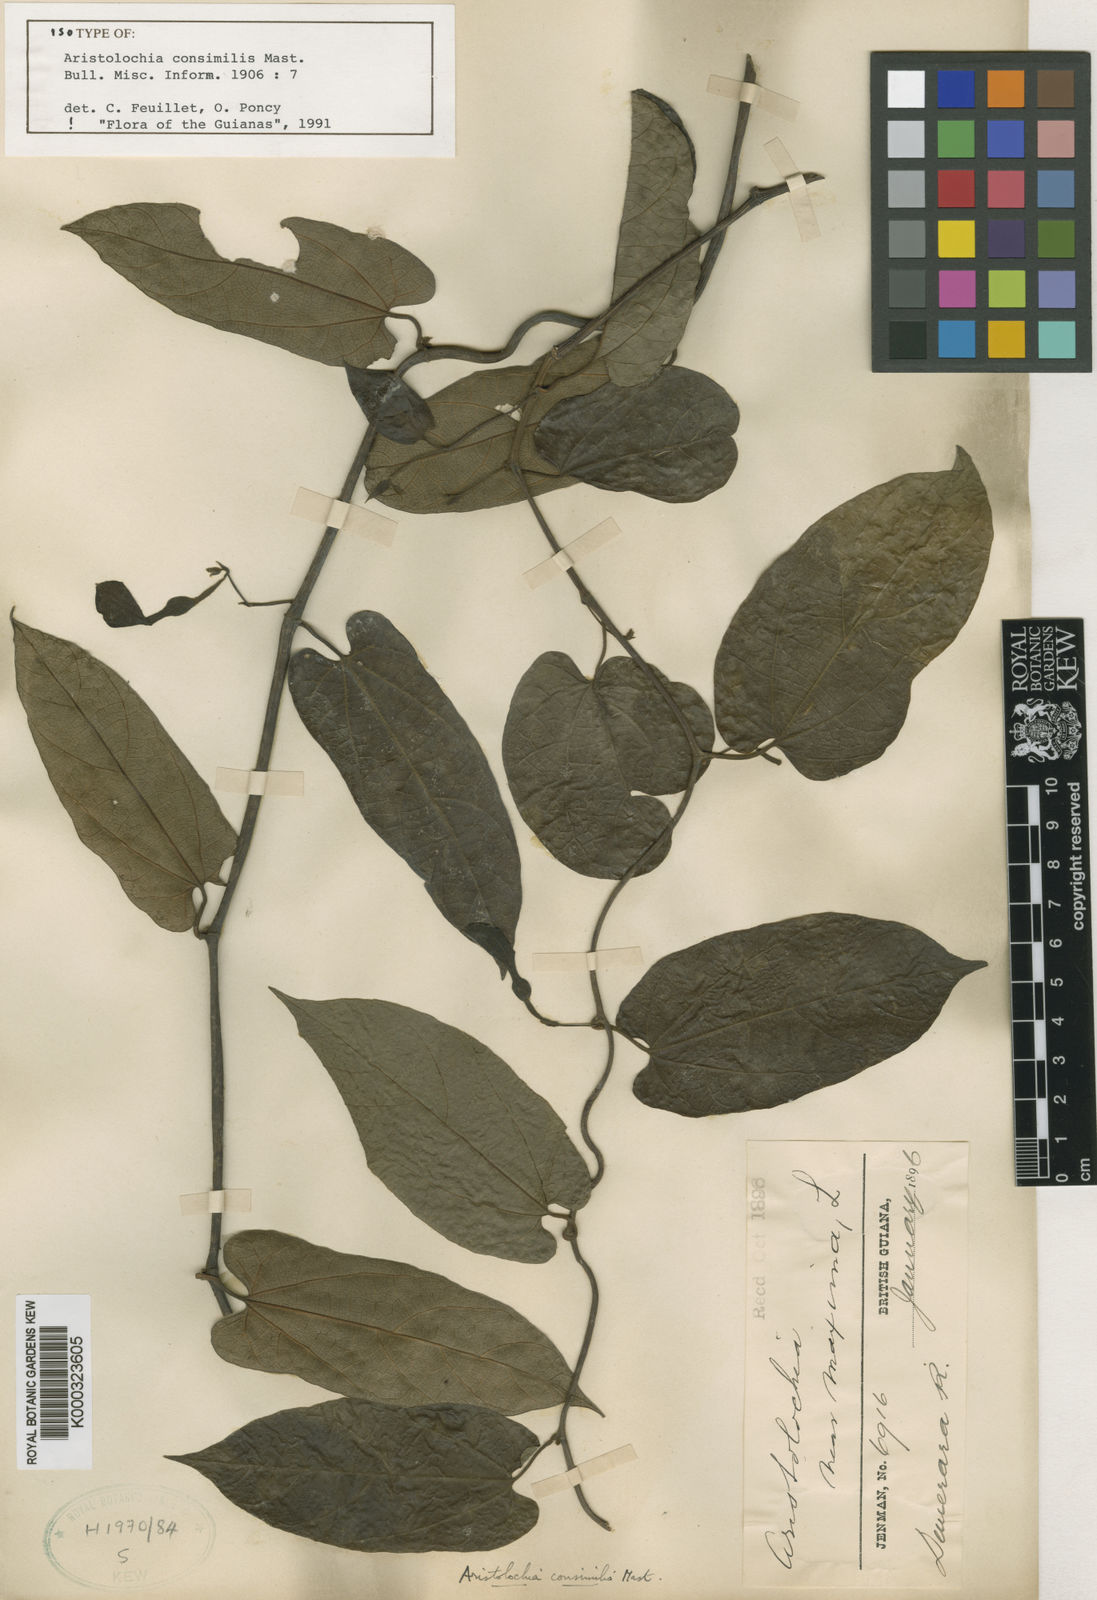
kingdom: Plantae
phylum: Tracheophyta
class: Magnoliopsida
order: Piperales
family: Aristolochiaceae
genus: Aristolochia
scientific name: Aristolochia consimilis
